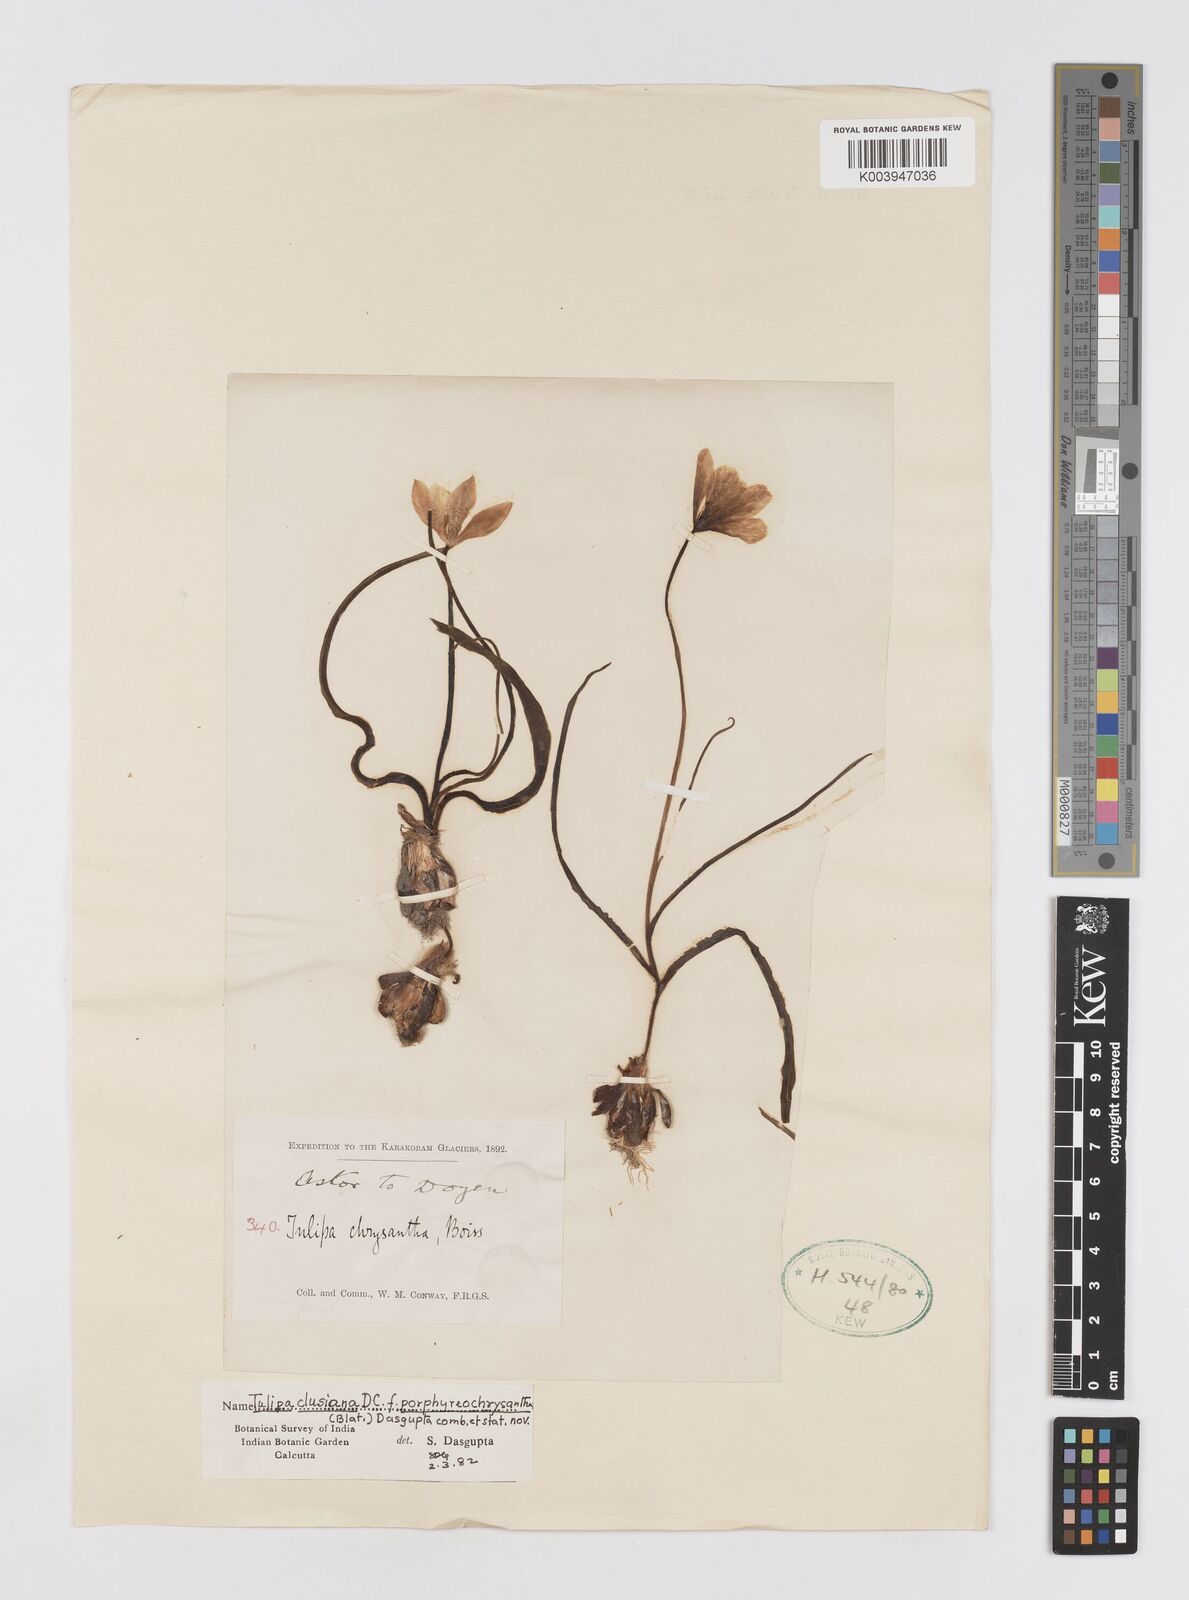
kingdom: Plantae
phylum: Tracheophyta
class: Liliopsida
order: Liliales
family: Liliaceae
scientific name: Liliaceae
